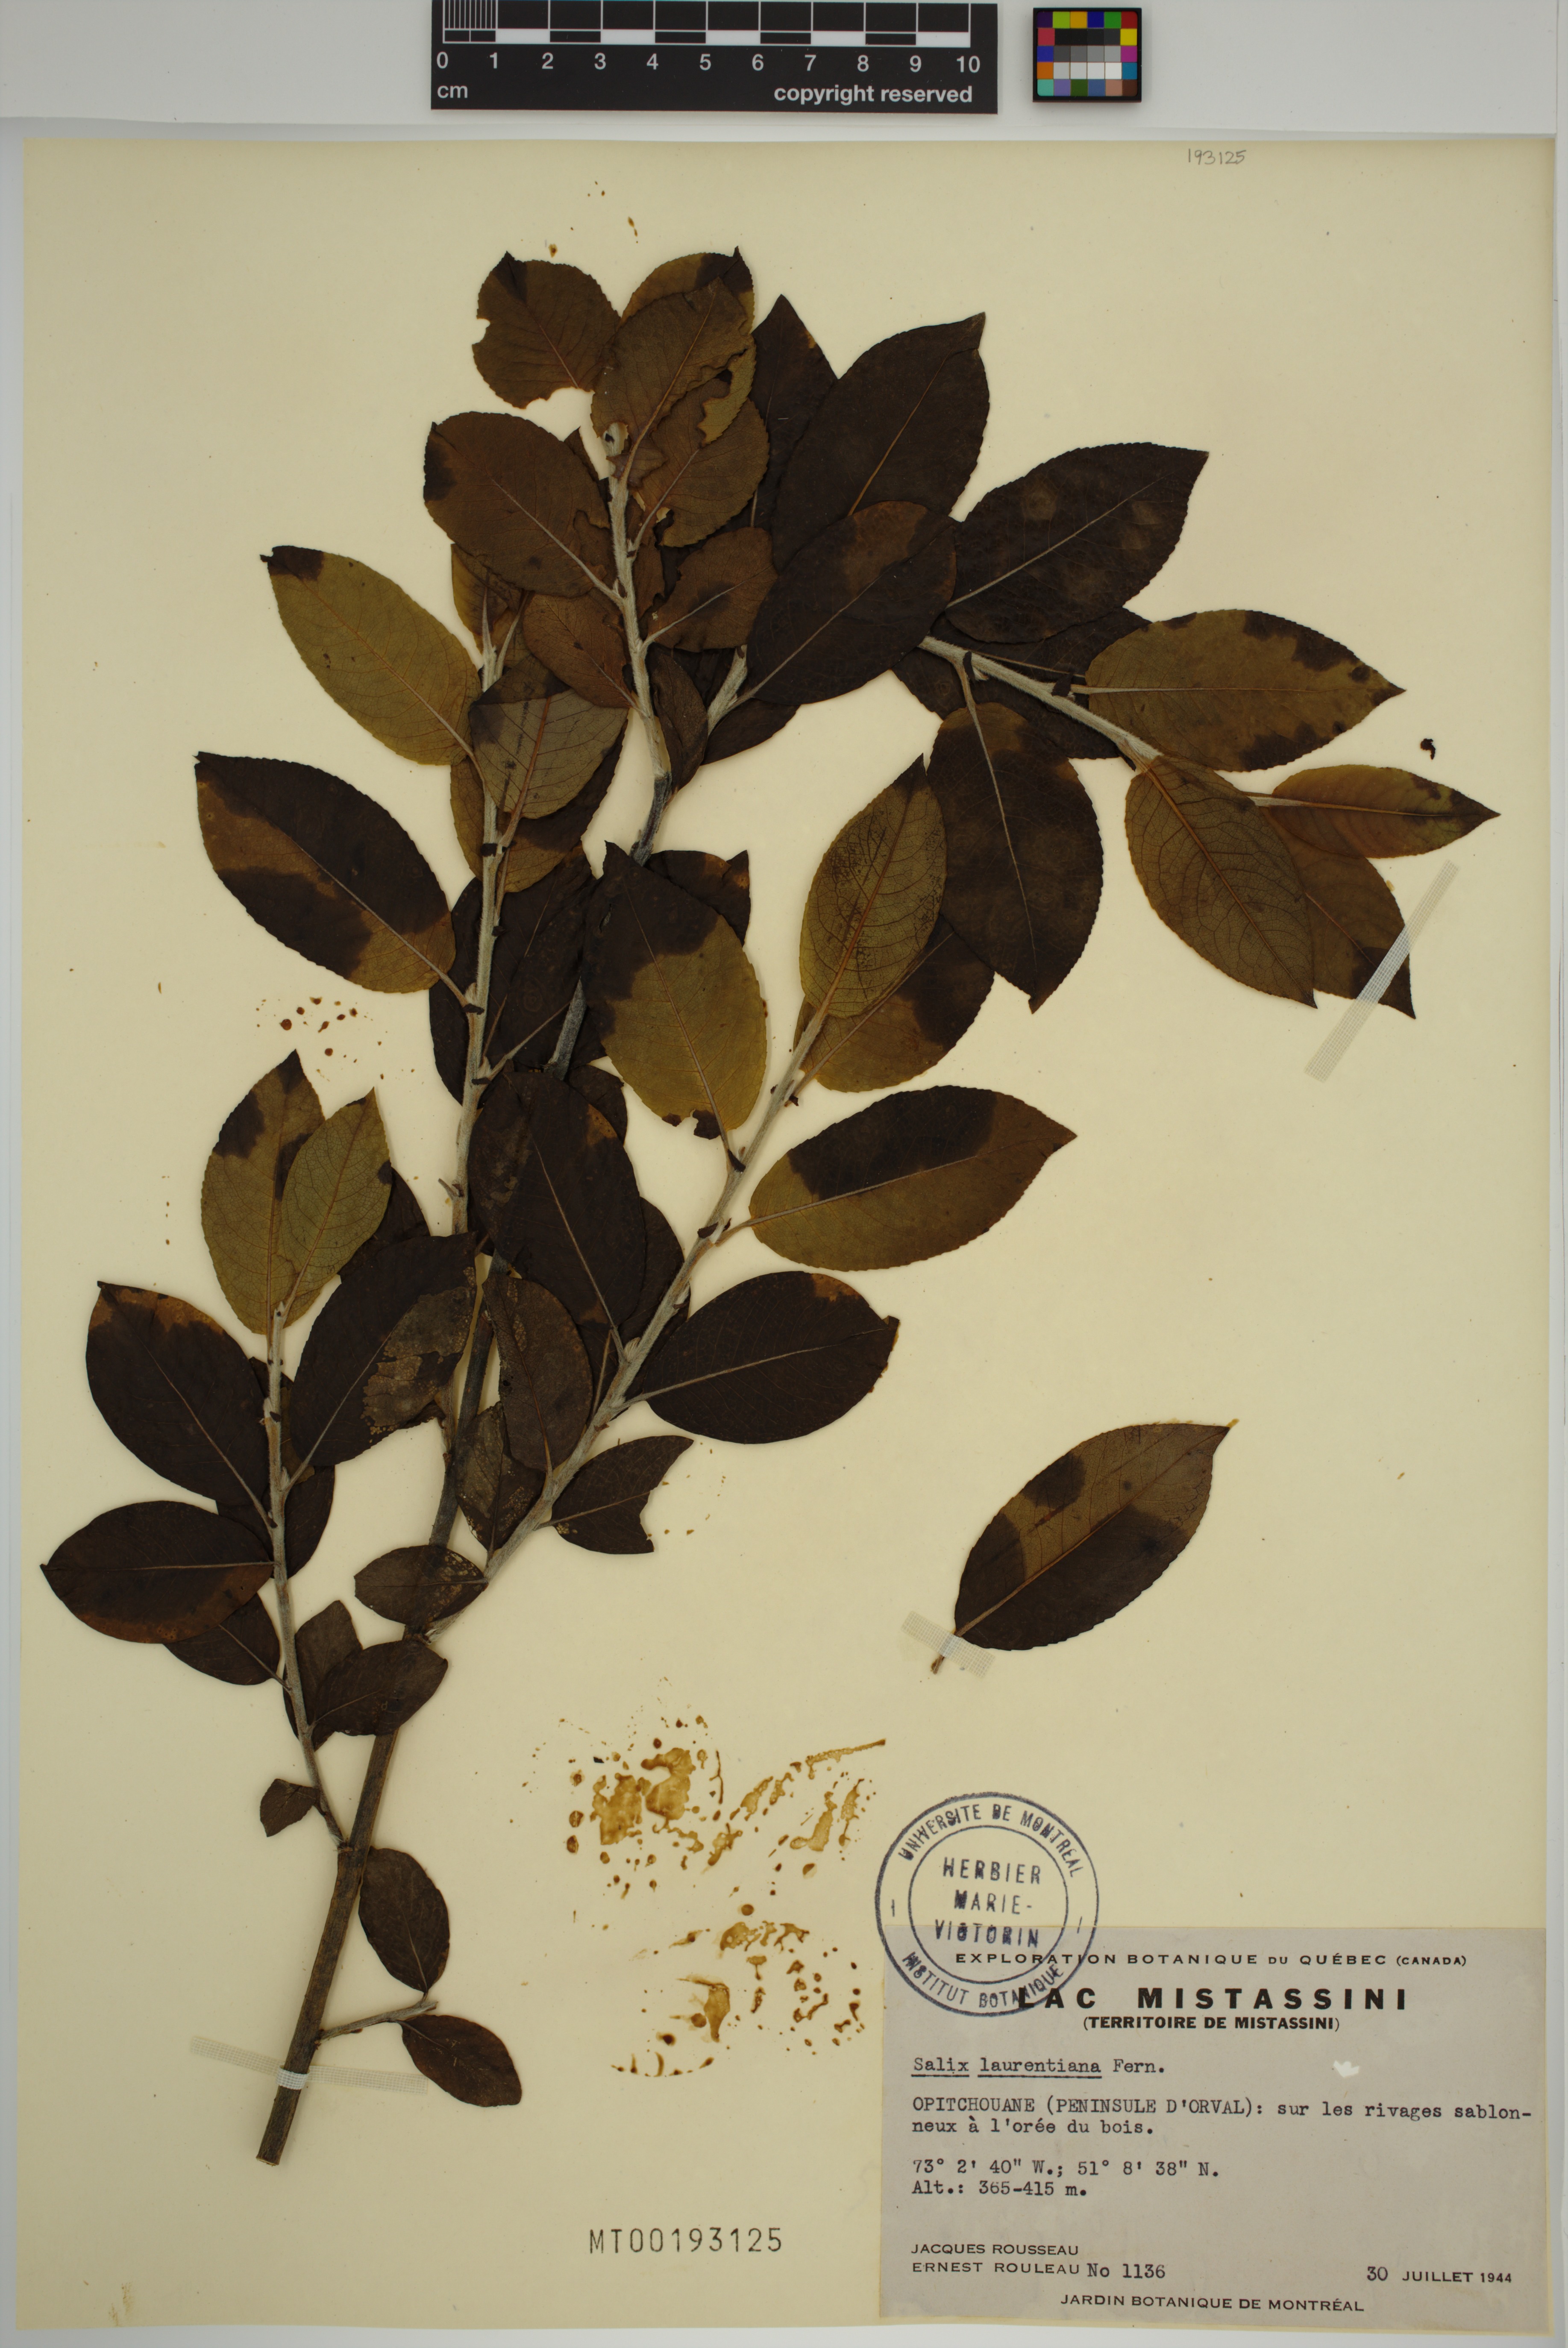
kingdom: Plantae
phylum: Tracheophyta
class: Magnoliopsida
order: Malpighiales
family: Salicaceae
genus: Salix
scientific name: Salix laurentiana
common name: Gulf of st. lawrence willow
